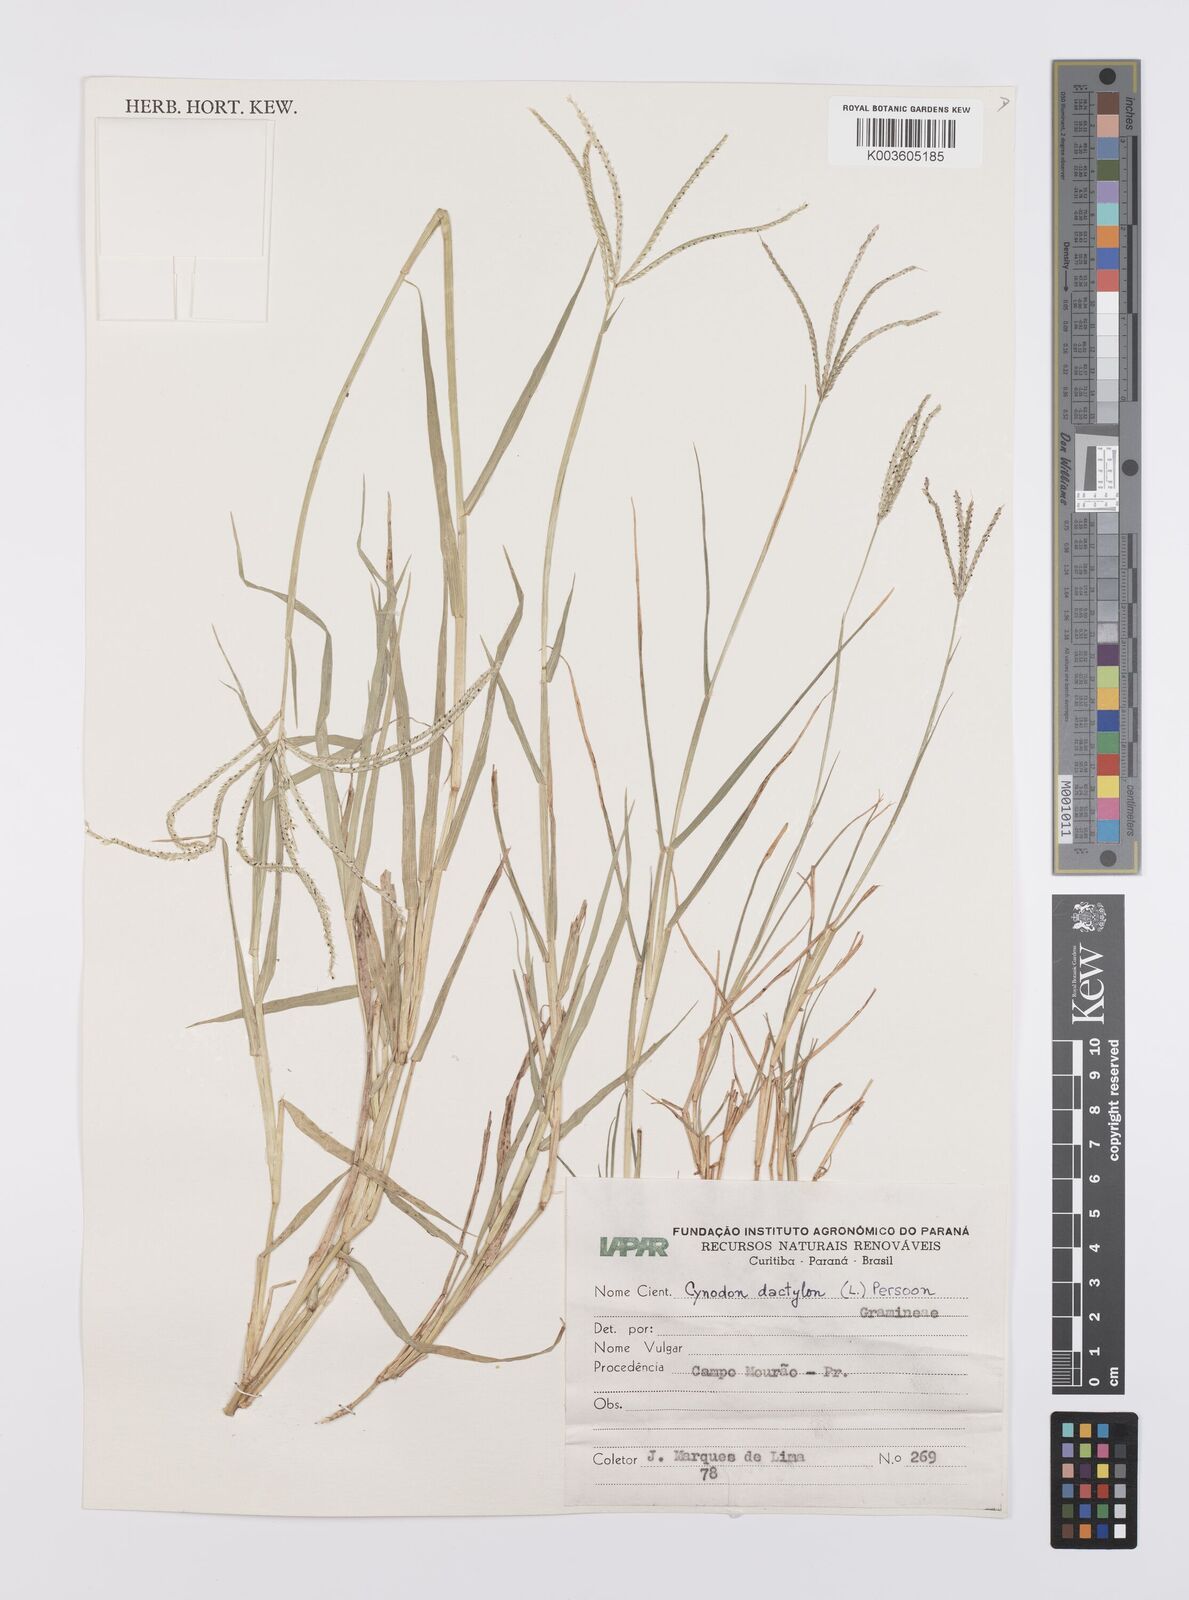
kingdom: Plantae
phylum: Tracheophyta
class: Liliopsida
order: Poales
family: Poaceae
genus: Cynodon
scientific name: Cynodon dactylon
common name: Bermuda grass
